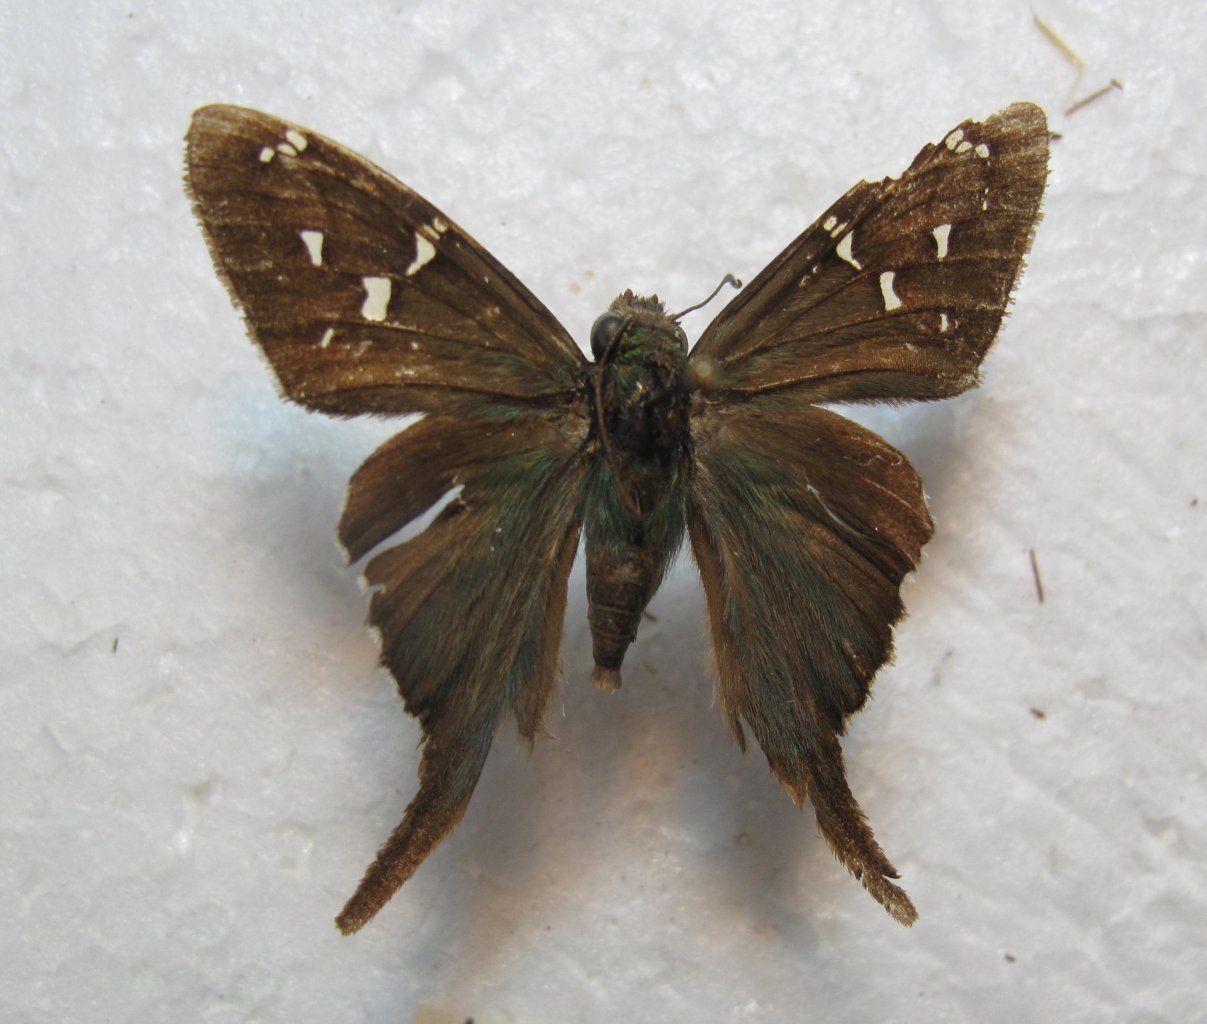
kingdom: Animalia
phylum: Arthropoda
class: Insecta
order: Lepidoptera
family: Hesperiidae
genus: Urbanus
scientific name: Urbanus viterboana
